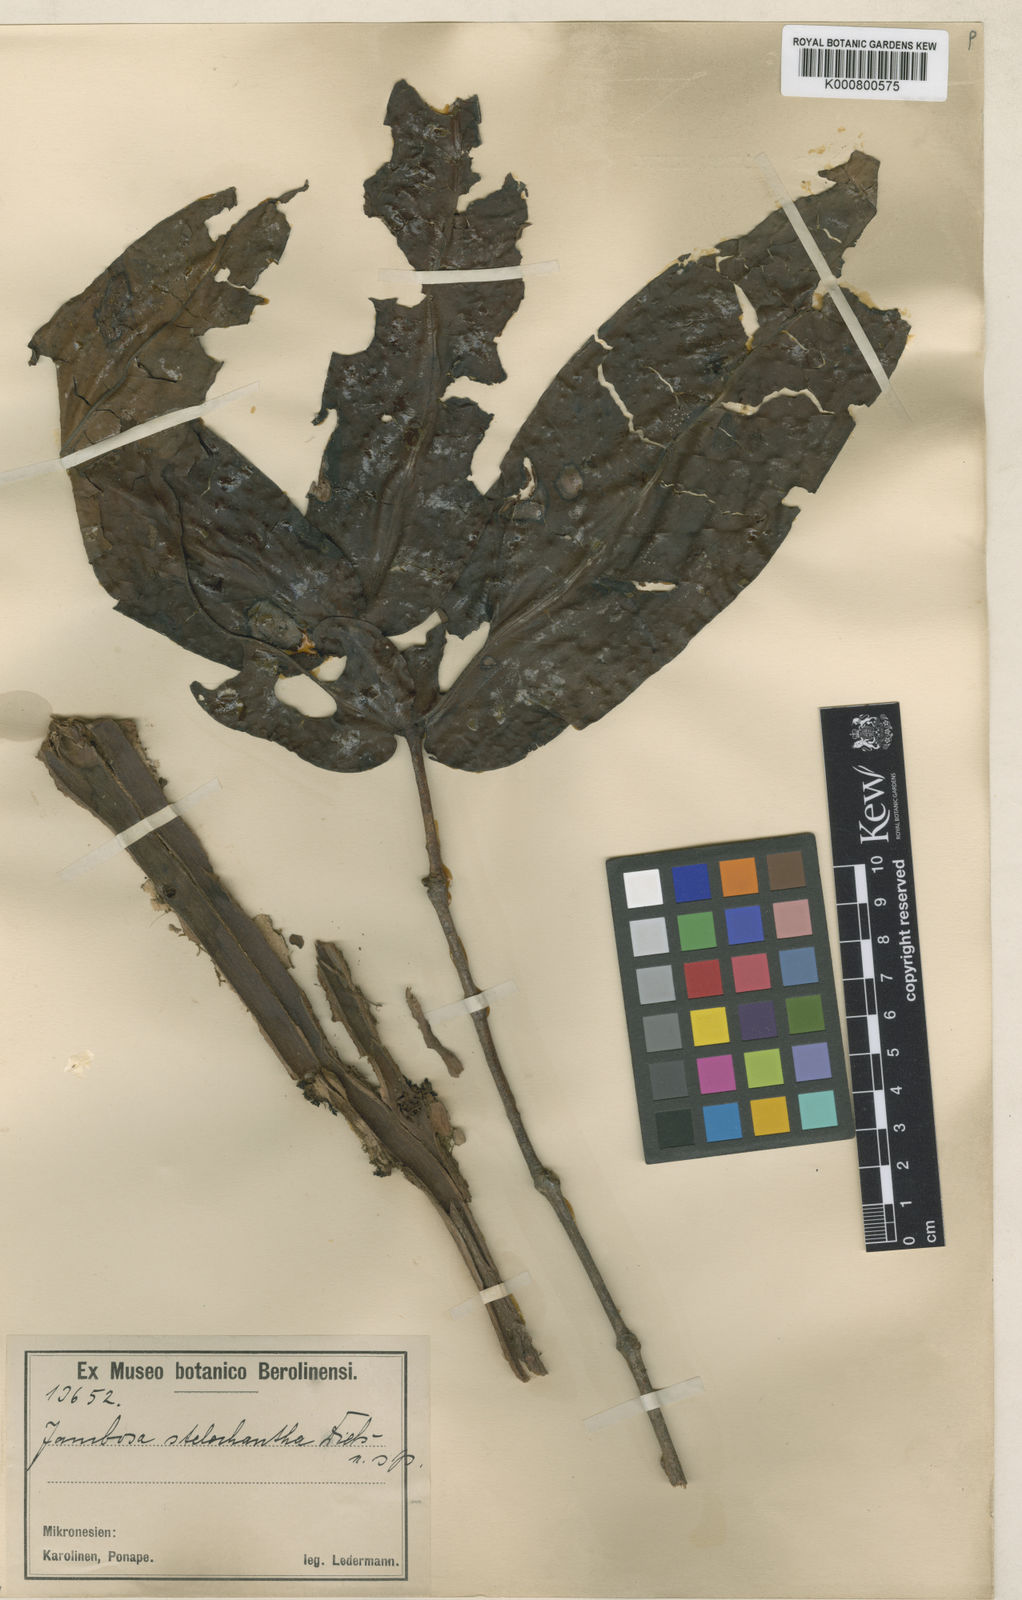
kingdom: Plantae
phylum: Tracheophyta
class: Magnoliopsida
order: Myrtales
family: Myrtaceae
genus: Syzygium
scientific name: Syzygium stelechanthum
